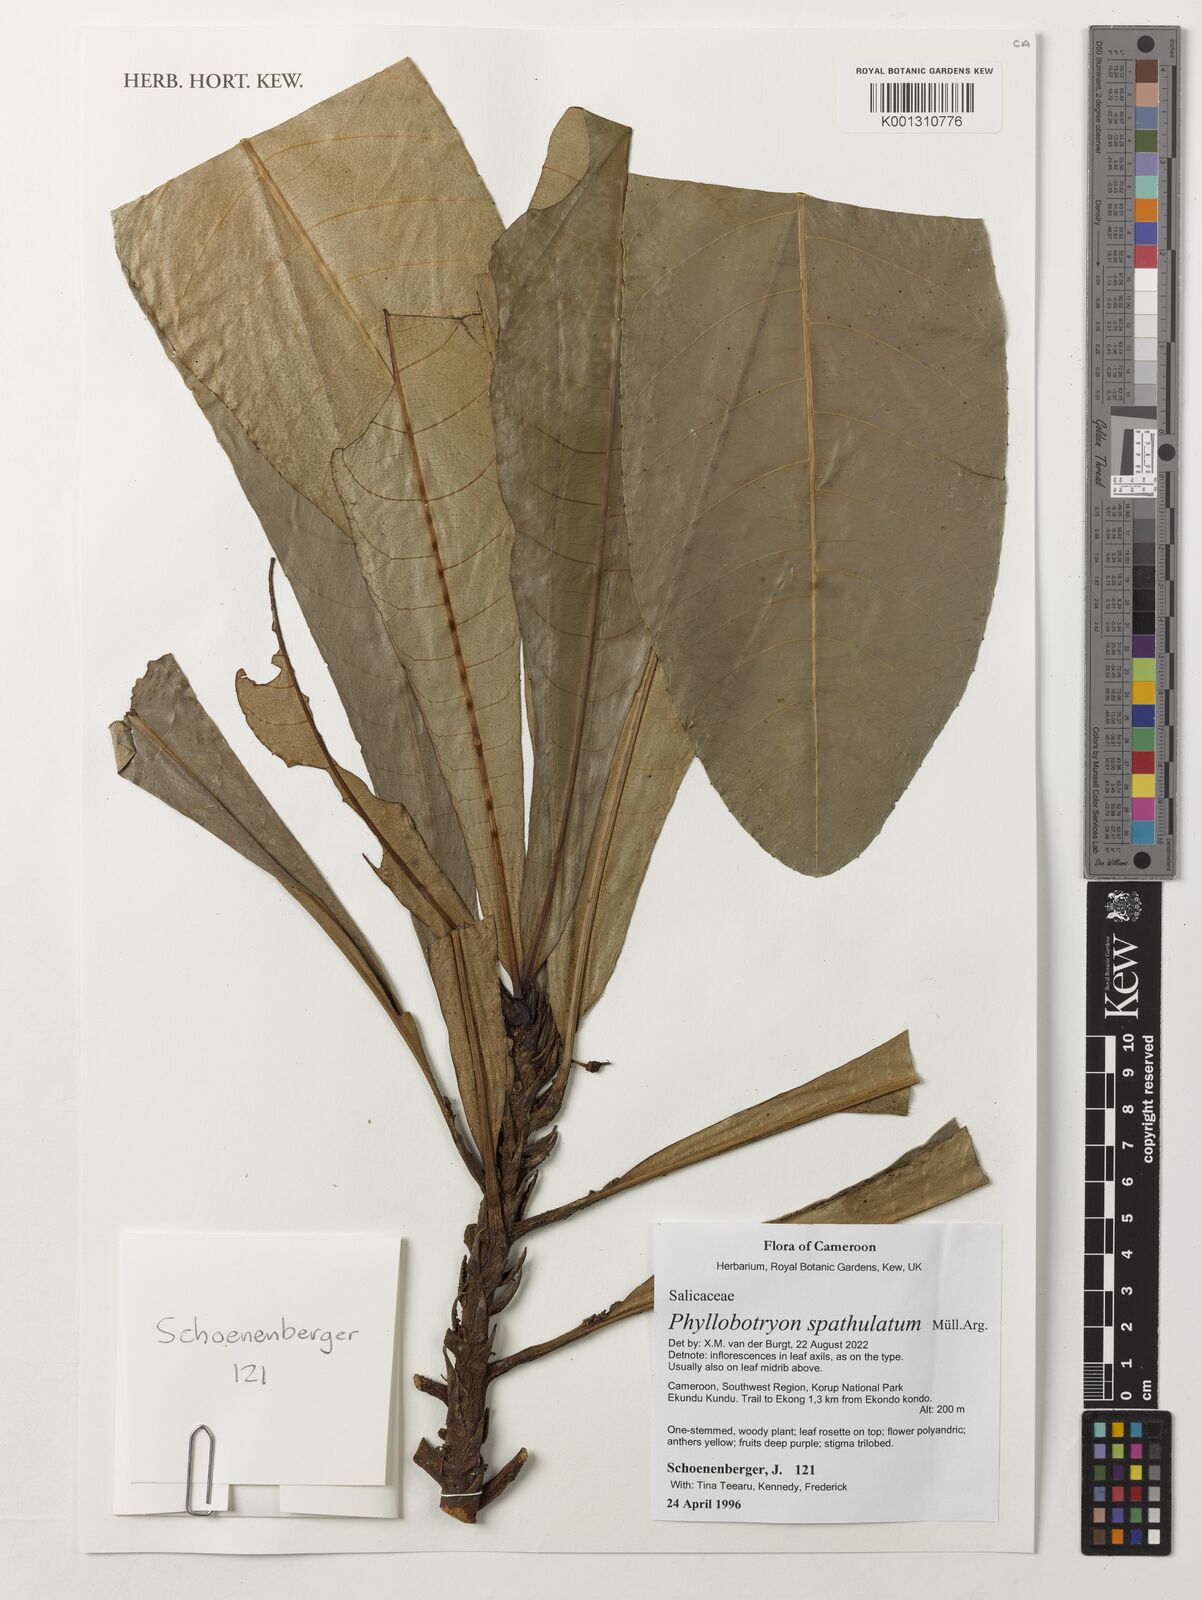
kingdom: Plantae
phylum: Tracheophyta
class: Magnoliopsida
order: Malpighiales
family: Salicaceae
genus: Phyllobotryon
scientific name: Phyllobotryon spathulatum
